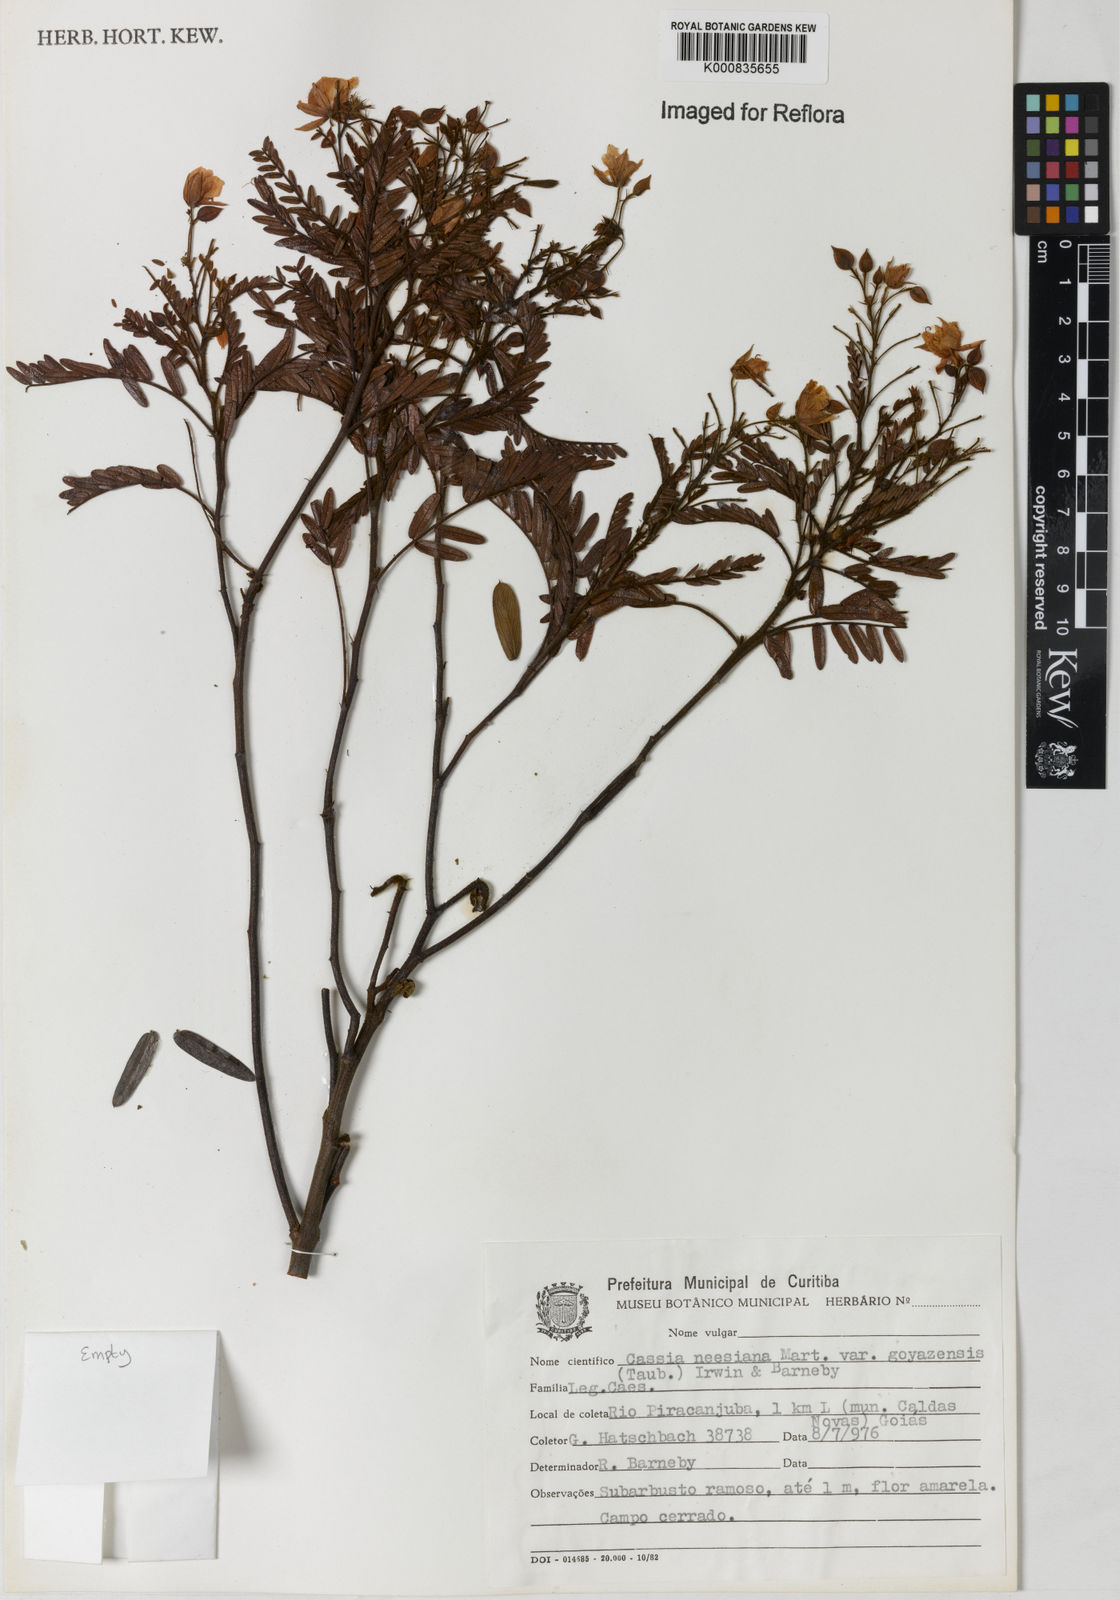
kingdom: Plantae
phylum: Tracheophyta
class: Magnoliopsida
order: Fabales
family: Fabaceae
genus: Chamaecrista
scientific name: Chamaecrista neesiana
